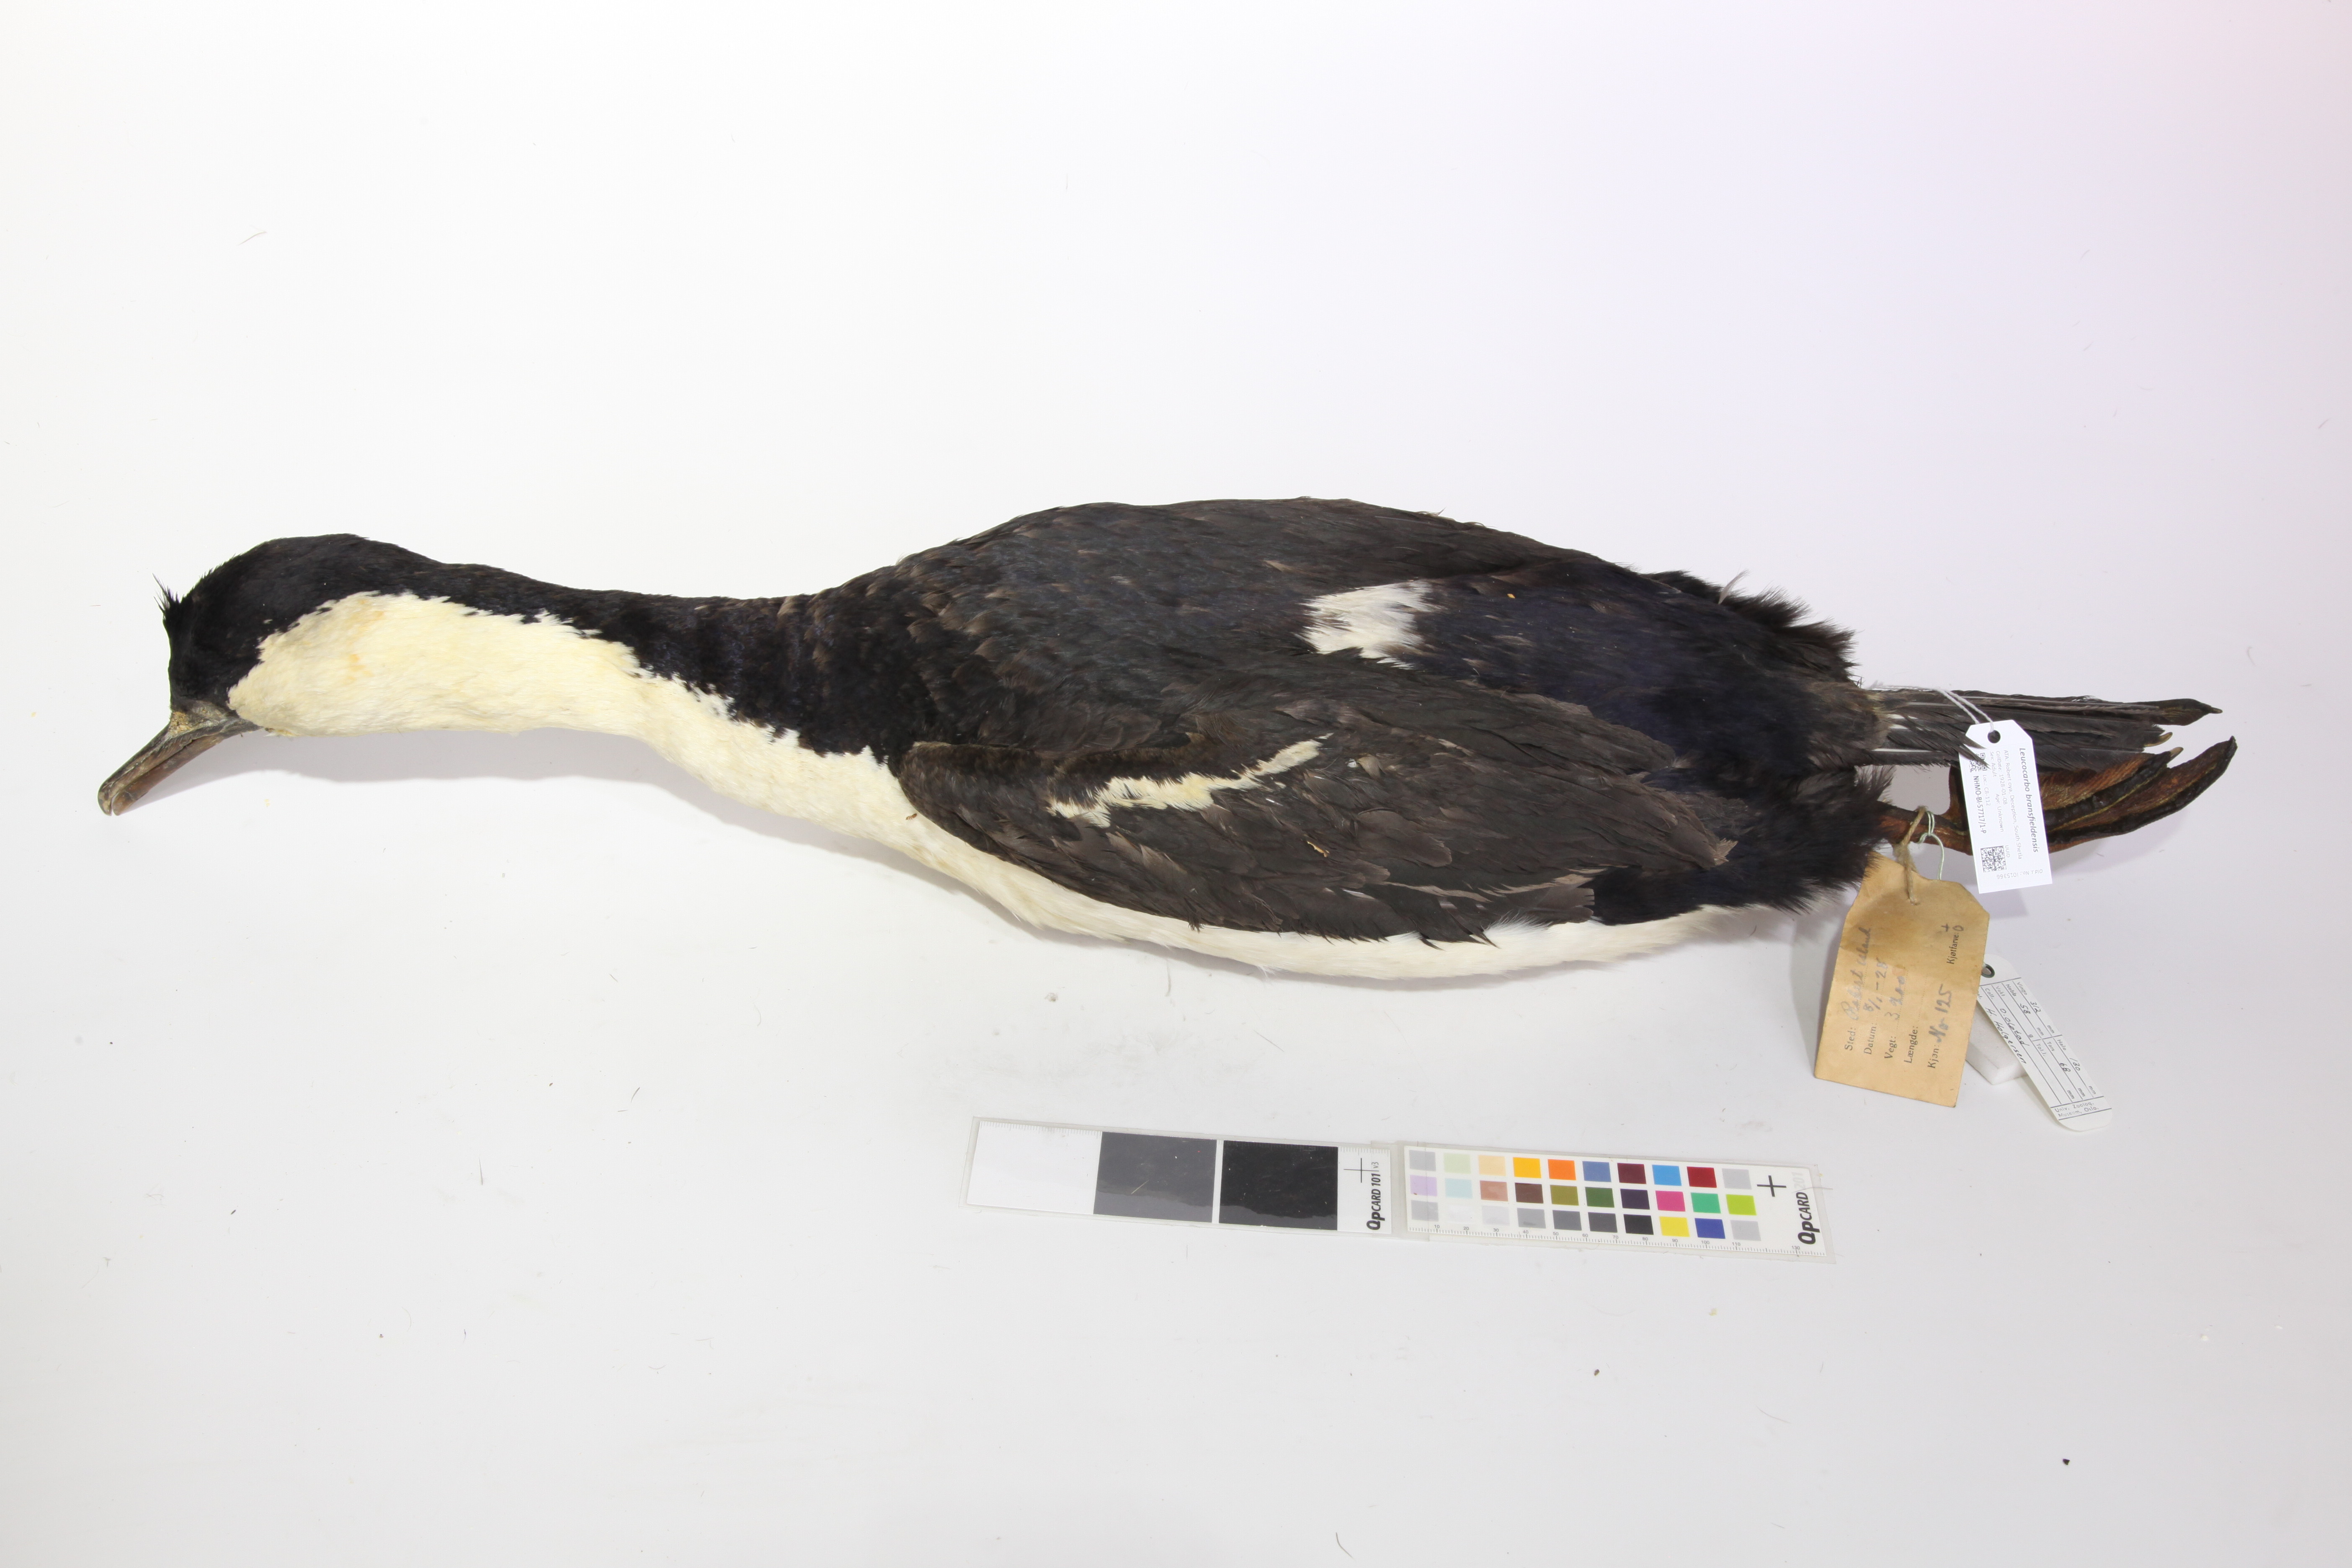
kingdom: Animalia
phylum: Chordata
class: Aves
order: Suliformes
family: Phalacrocoracidae
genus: Leucocarbo
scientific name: Leucocarbo atriceps
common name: Imperial shag
